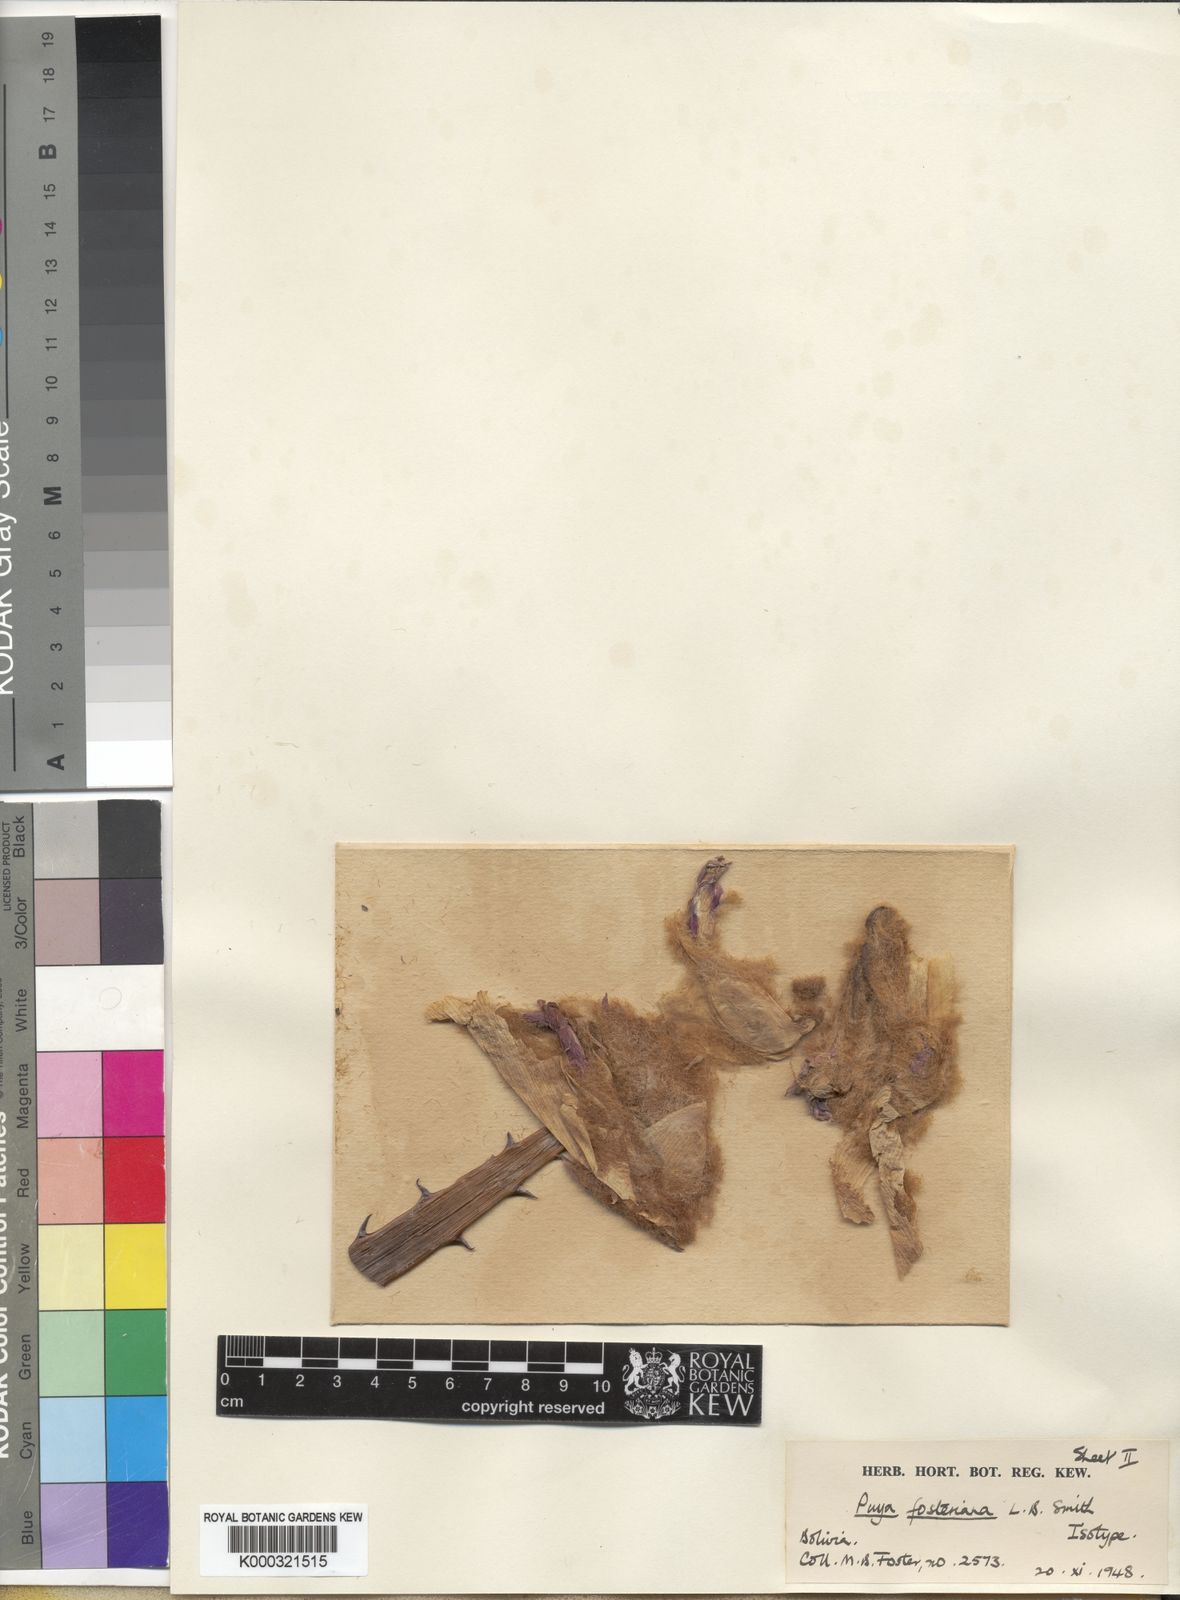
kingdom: Plantae
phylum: Tracheophyta
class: Liliopsida
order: Poales
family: Bromeliaceae
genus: Puya
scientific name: Puya fosteriana
